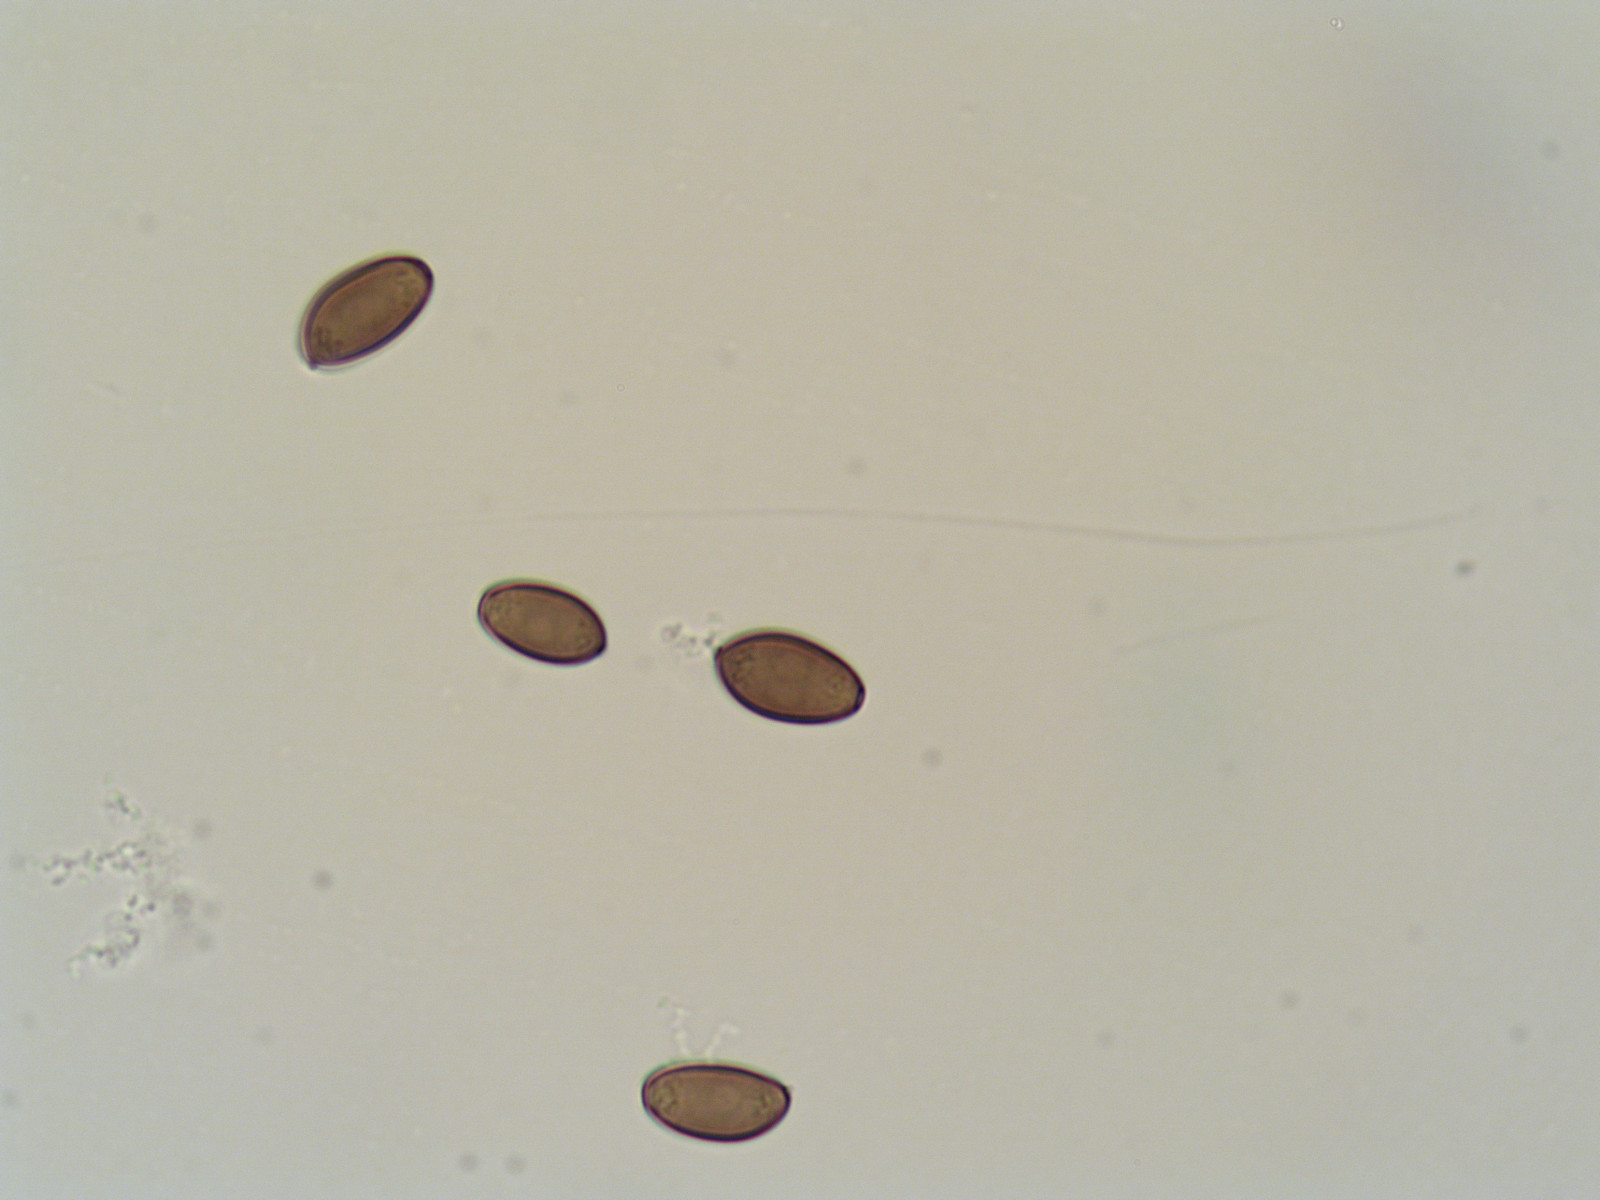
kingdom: Fungi
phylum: Basidiomycota
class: Agaricomycetes
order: Agaricales
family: Strophariaceae
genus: Protostropharia
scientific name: Protostropharia semiglobata
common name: halvkugleformet bredblad
